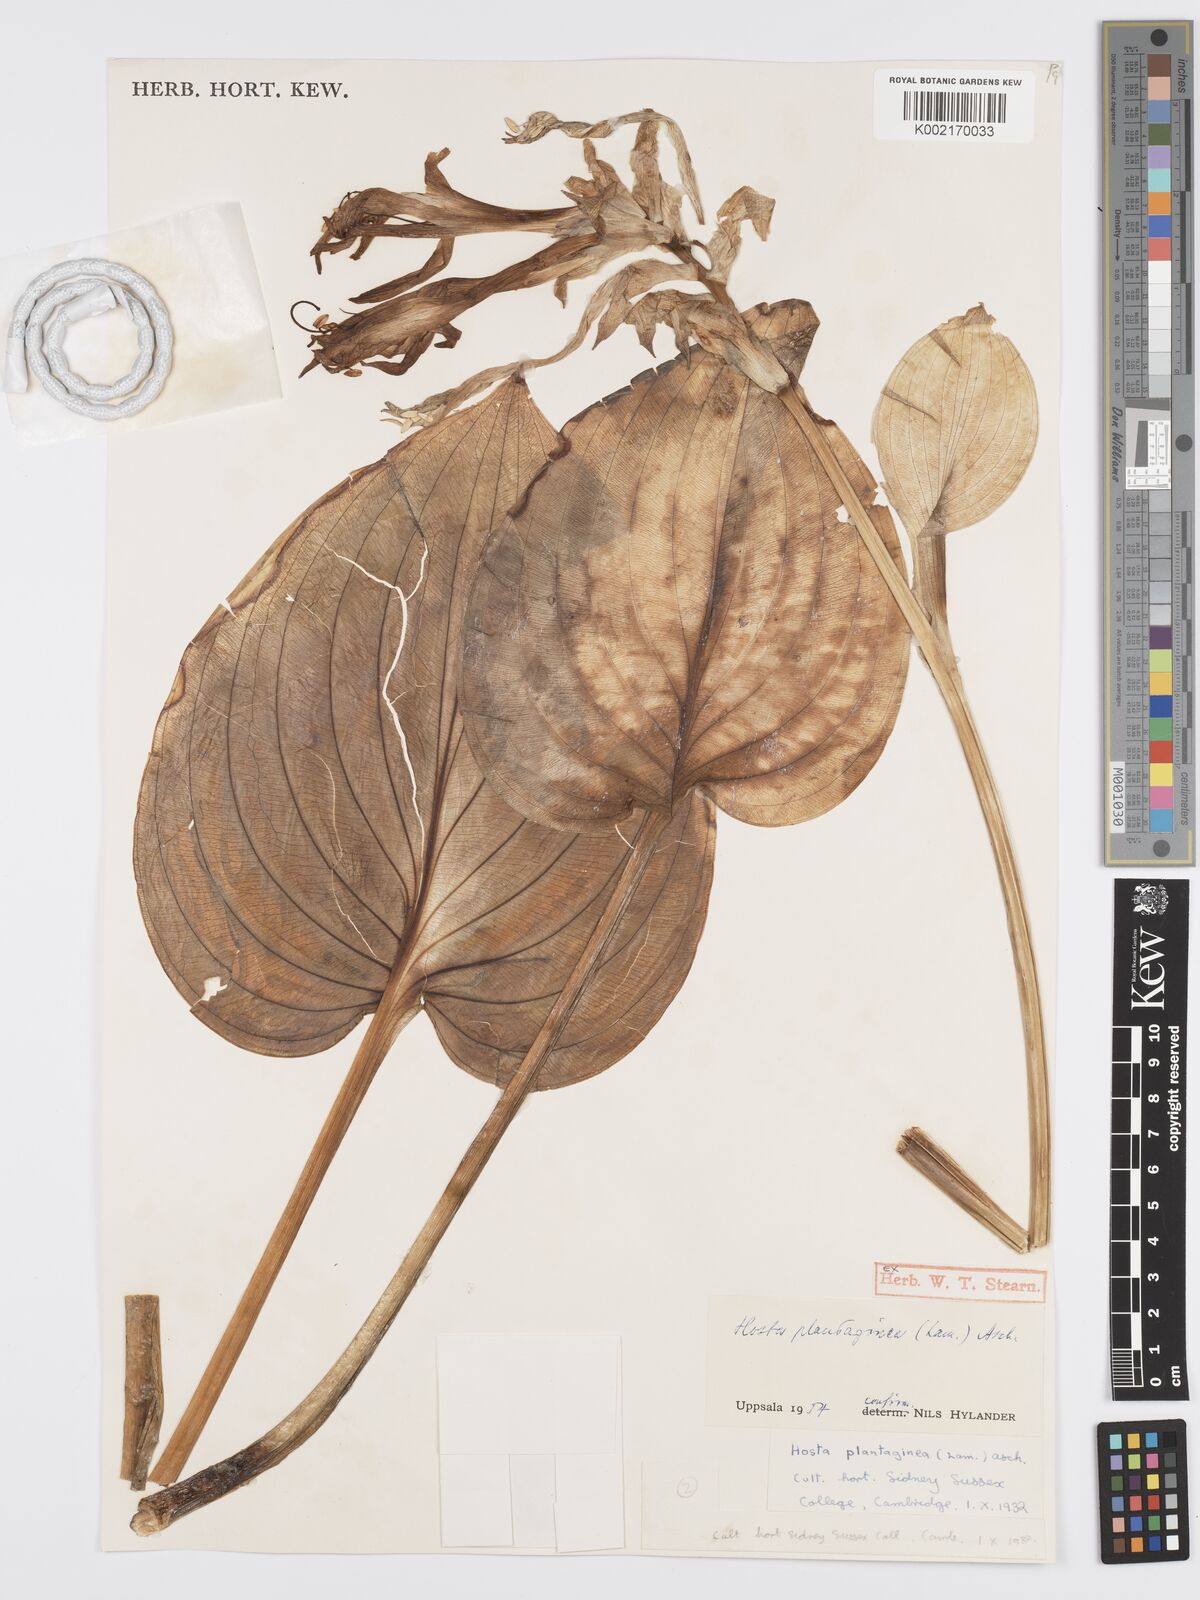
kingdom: Plantae
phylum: Tracheophyta
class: Liliopsida
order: Asparagales
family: Asparagaceae
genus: Hosta
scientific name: Hosta plantaginea
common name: August-lily
